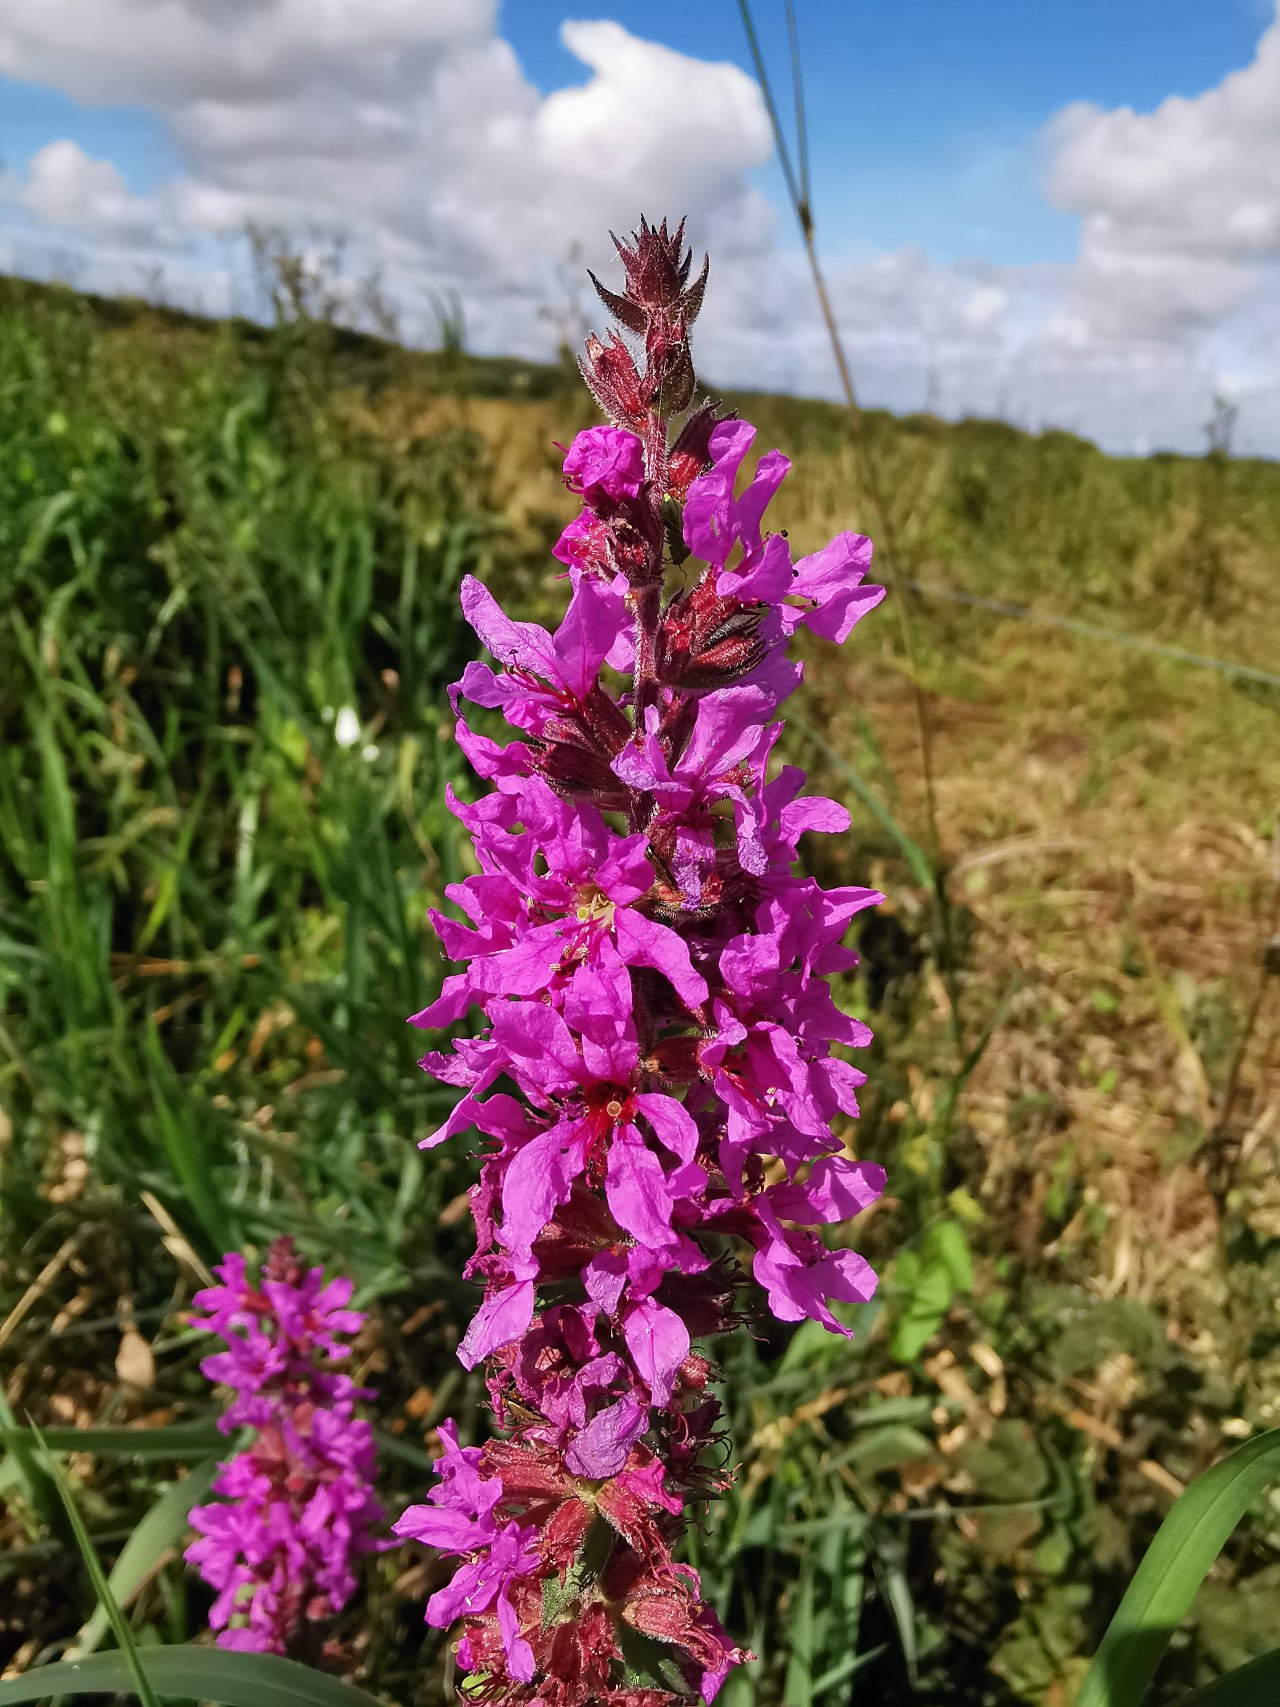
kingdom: Plantae
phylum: Tracheophyta
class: Magnoliopsida
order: Myrtales
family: Lythraceae
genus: Lythrum
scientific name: Lythrum salicaria
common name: Kattehale
